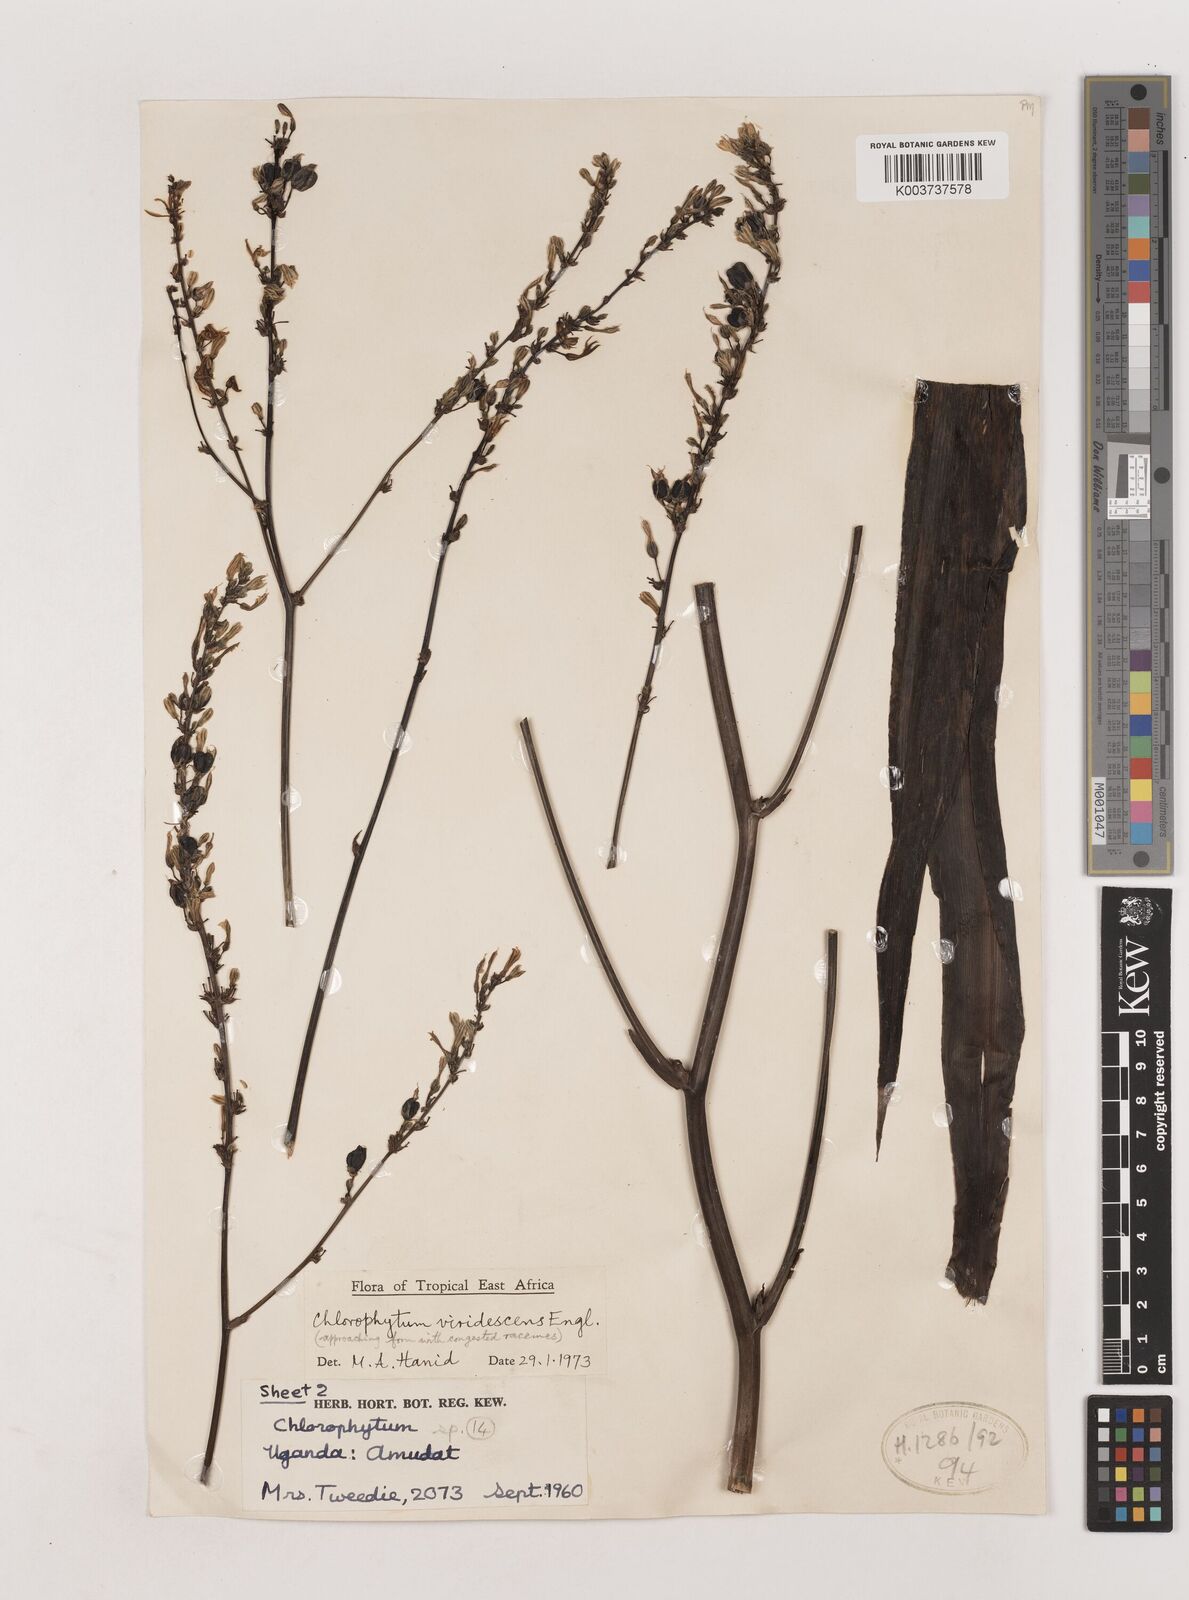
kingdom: Plantae
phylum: Tracheophyta
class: Liliopsida
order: Asparagales
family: Asparagaceae
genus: Chlorophytum
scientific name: Chlorophytum andongense
